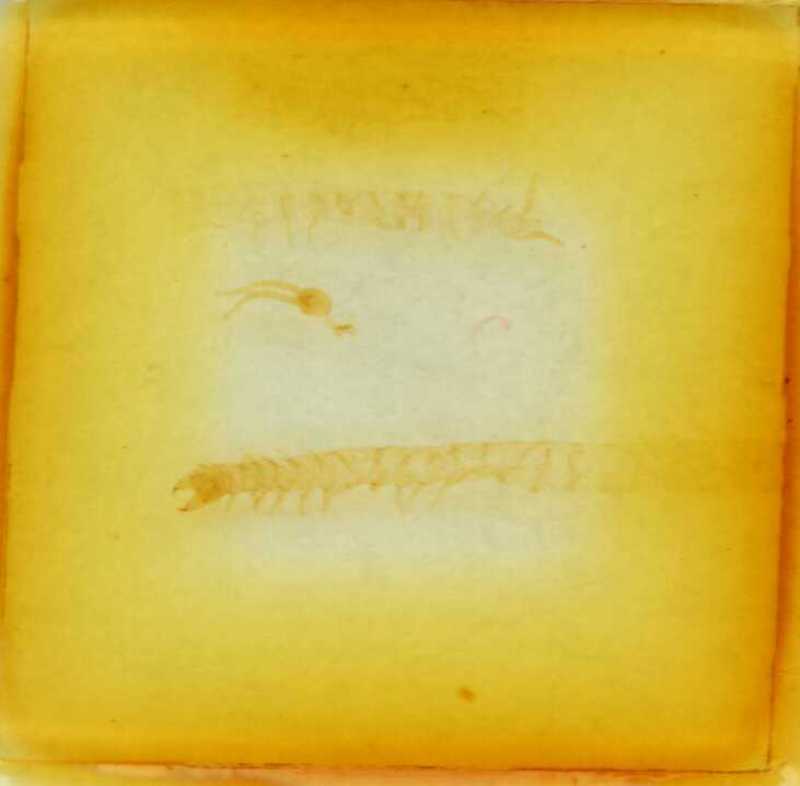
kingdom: Animalia
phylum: Arthropoda
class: Chilopoda
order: Geophilomorpha
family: Schendylidae
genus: Schendyla
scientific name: Schendyla carniolensis
